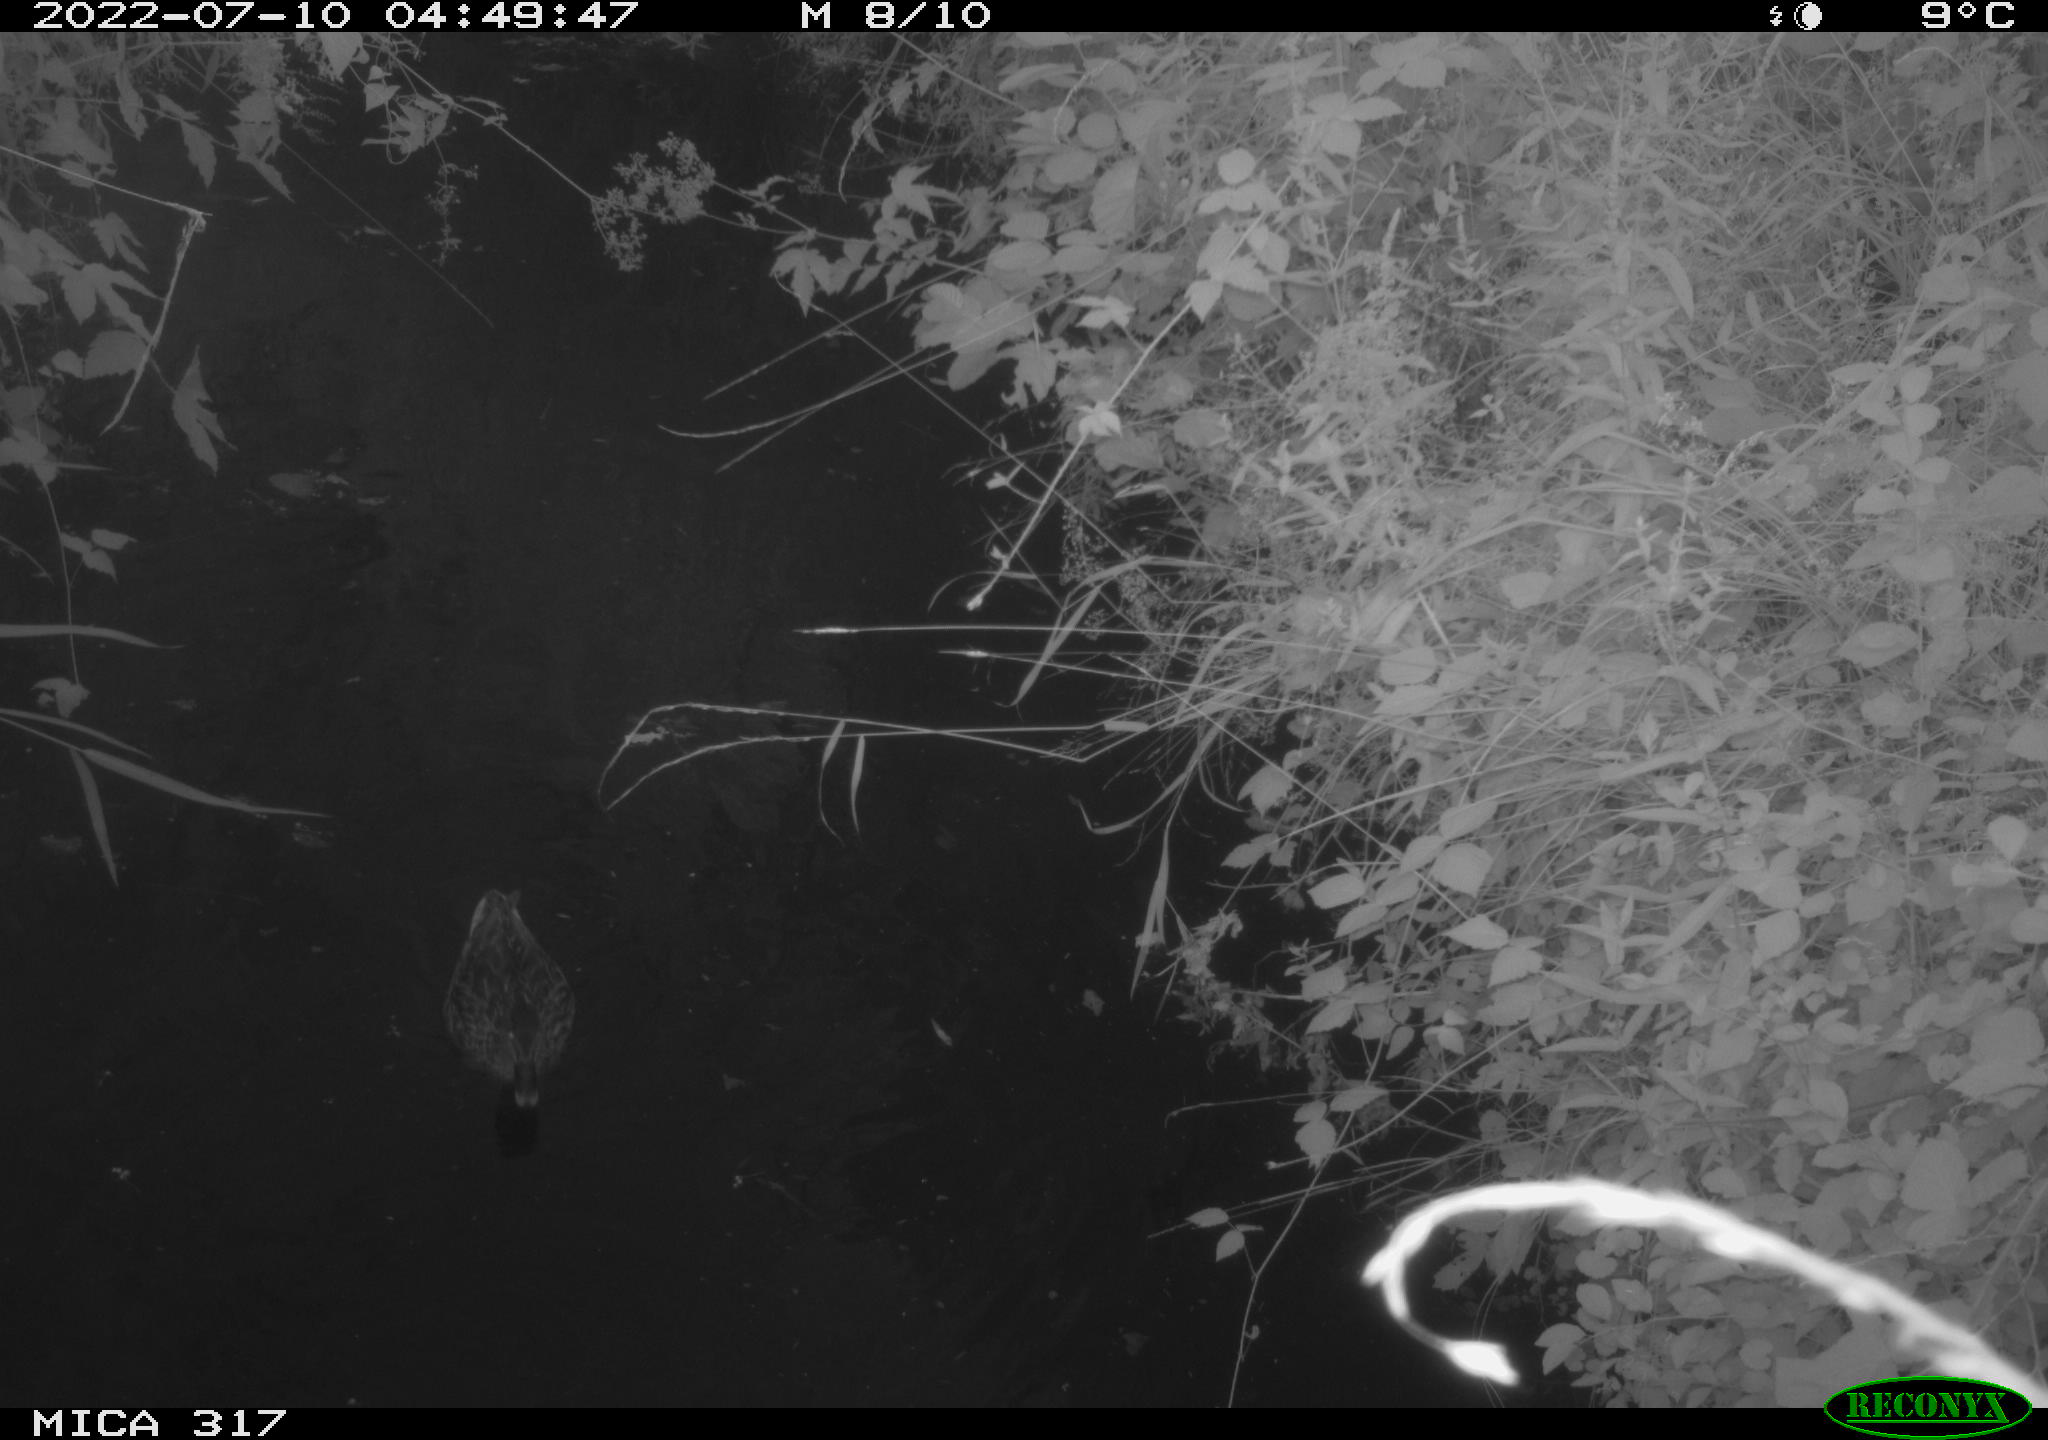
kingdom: Animalia
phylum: Chordata
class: Aves
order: Anseriformes
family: Anatidae
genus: Anas
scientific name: Anas platyrhynchos
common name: Mallard
